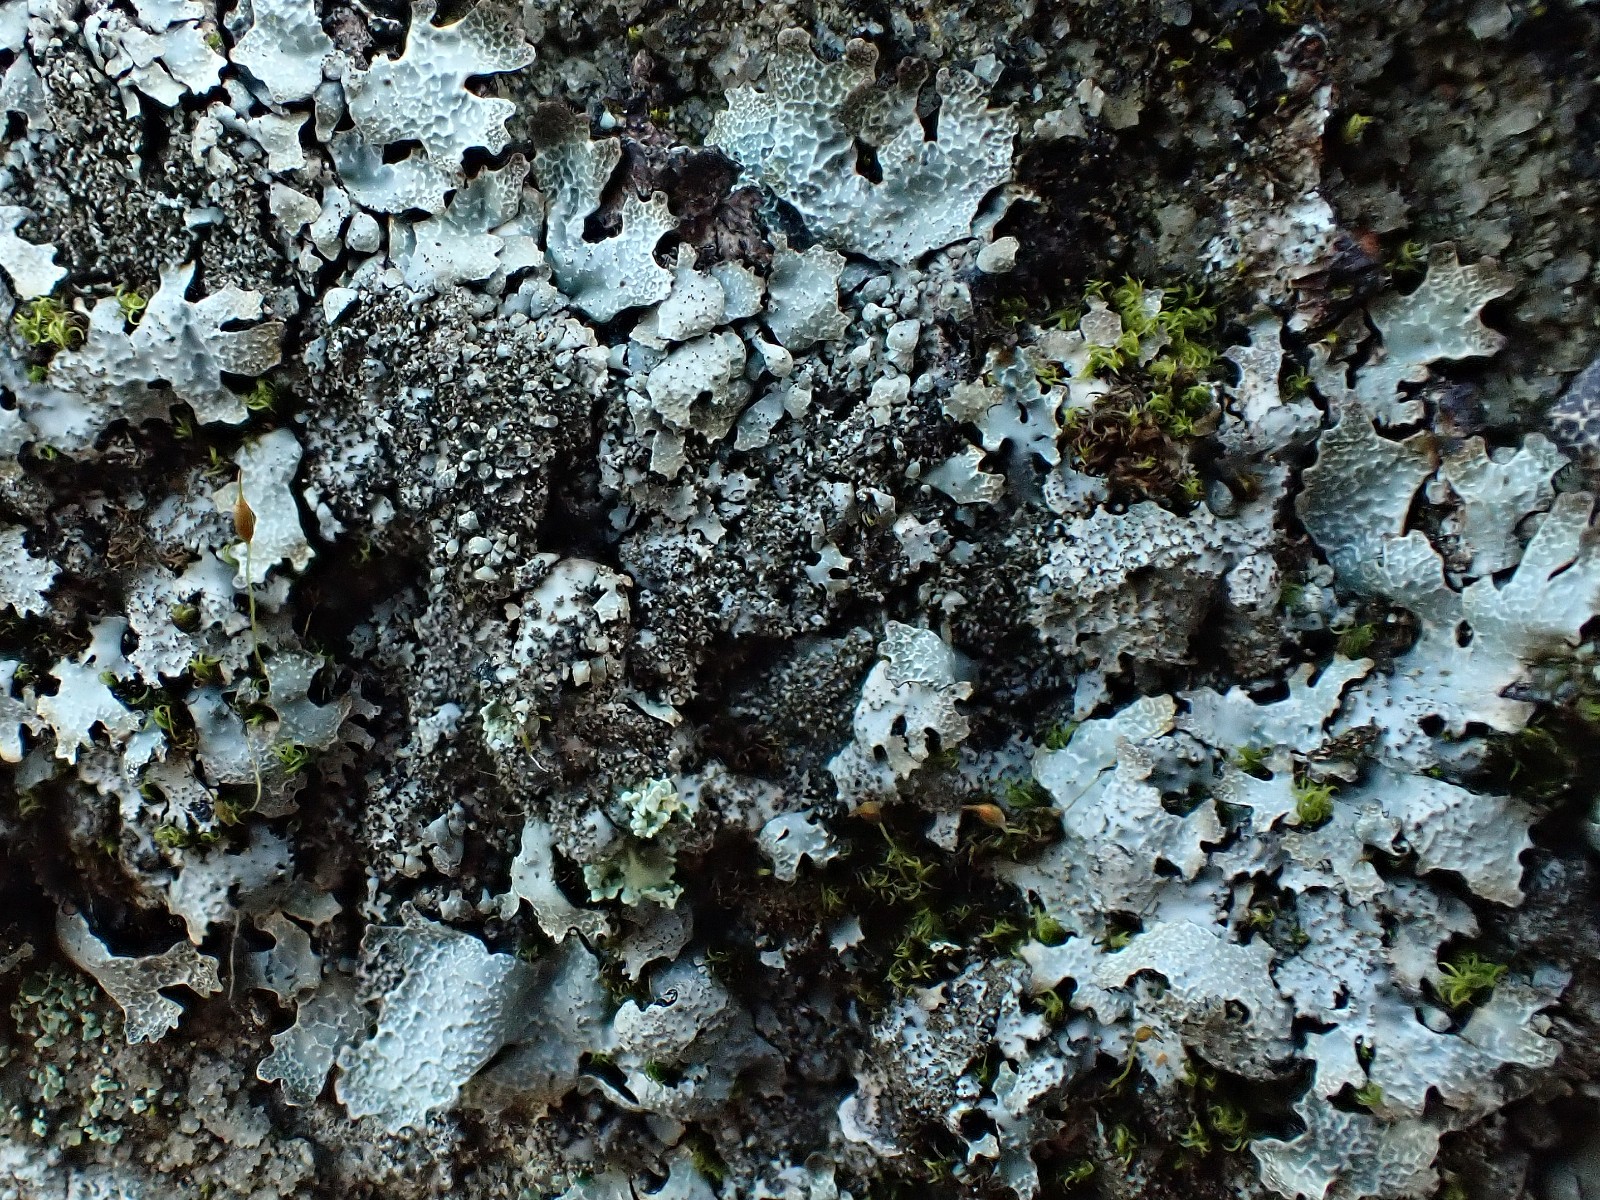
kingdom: Fungi
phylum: Ascomycota
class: Lecanoromycetes
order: Lecanorales
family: Parmeliaceae
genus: Parmelia
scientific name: Parmelia saxatilis
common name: farve-skållav
